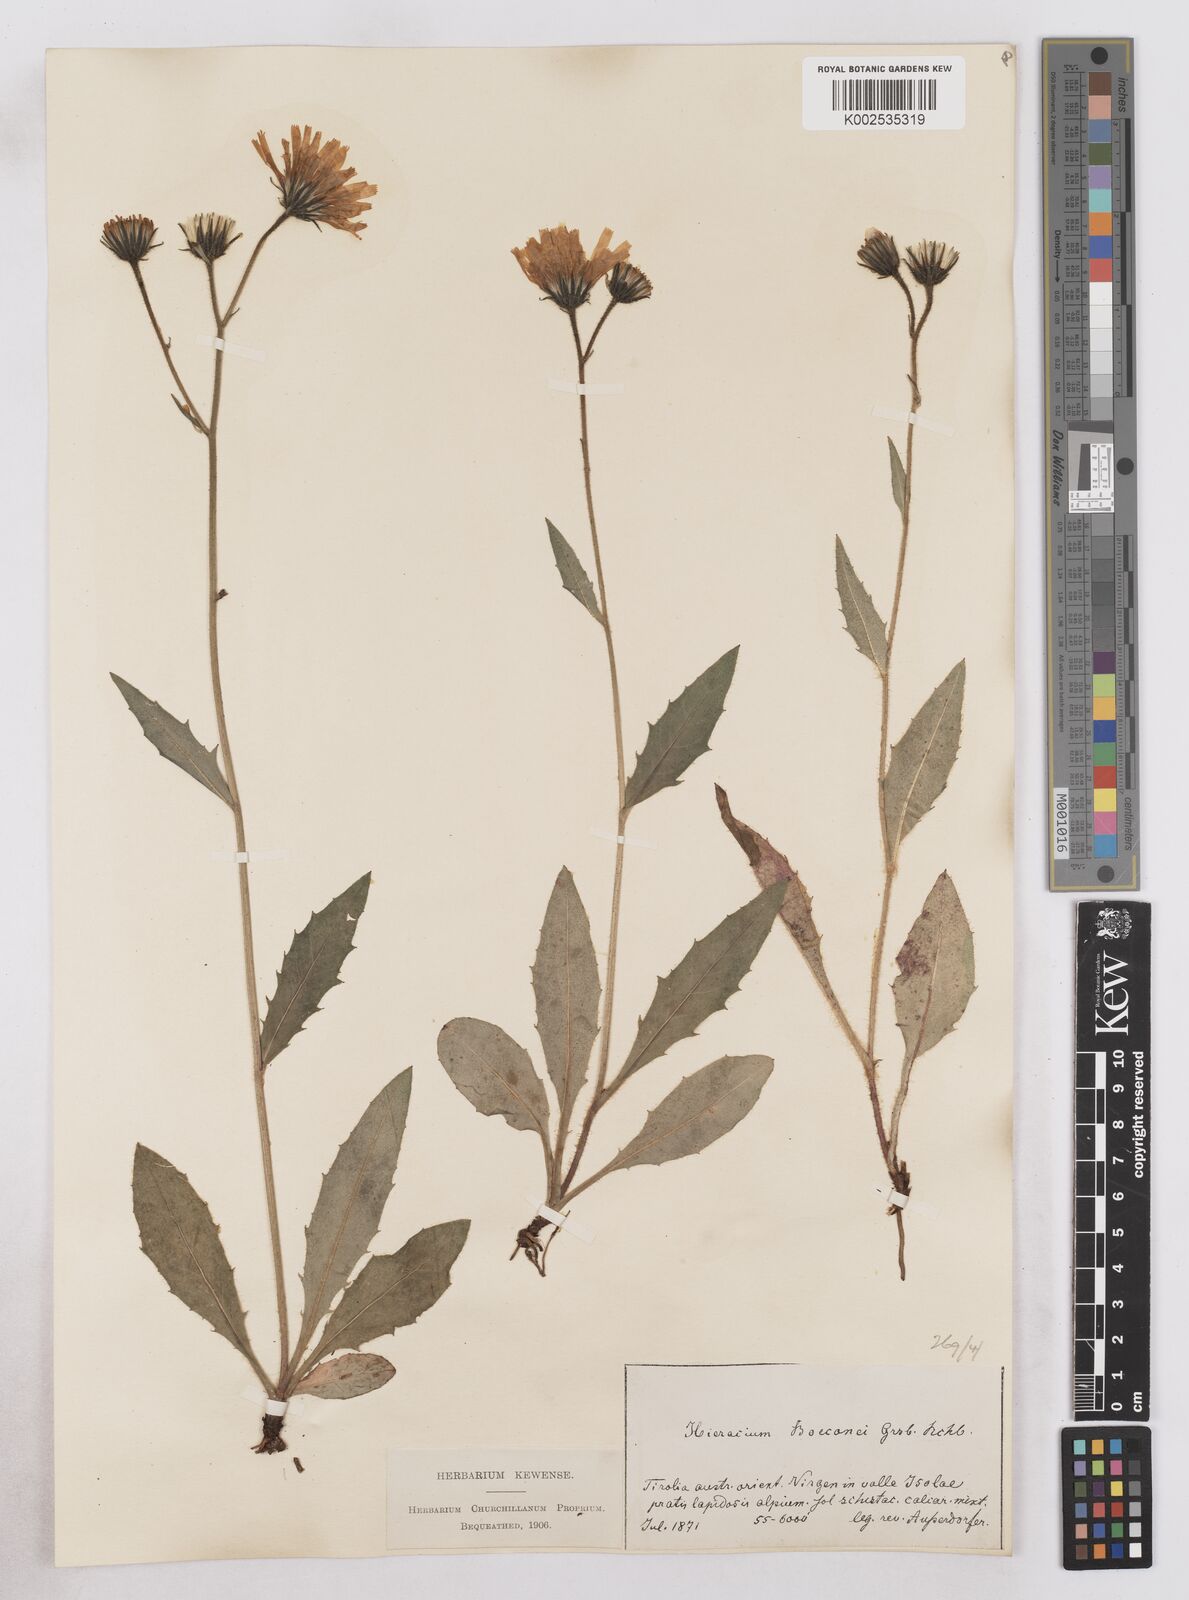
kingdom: Plantae
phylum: Tracheophyta
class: Magnoliopsida
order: Asterales
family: Asteraceae
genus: Hieracium
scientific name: Hieracium simia
